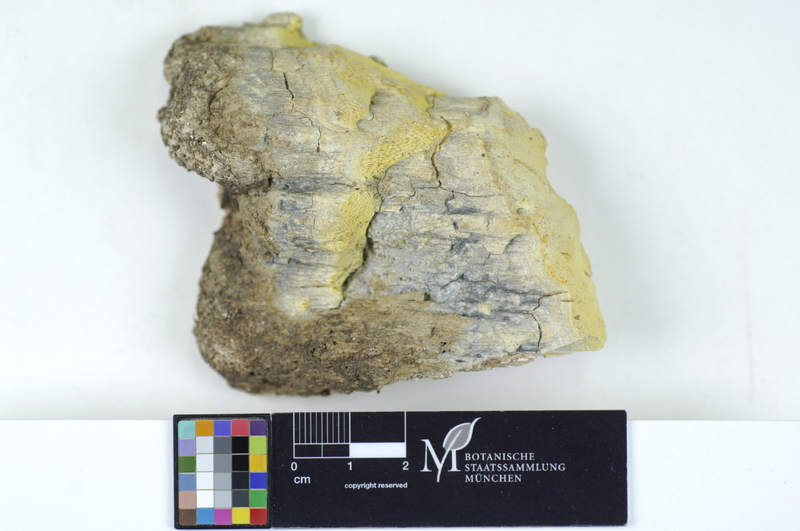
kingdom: Fungi
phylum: Basidiomycota
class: Agaricomycetes
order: Polyporales
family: Fomitopsidaceae
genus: Antrodia
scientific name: Antrodia alpina
